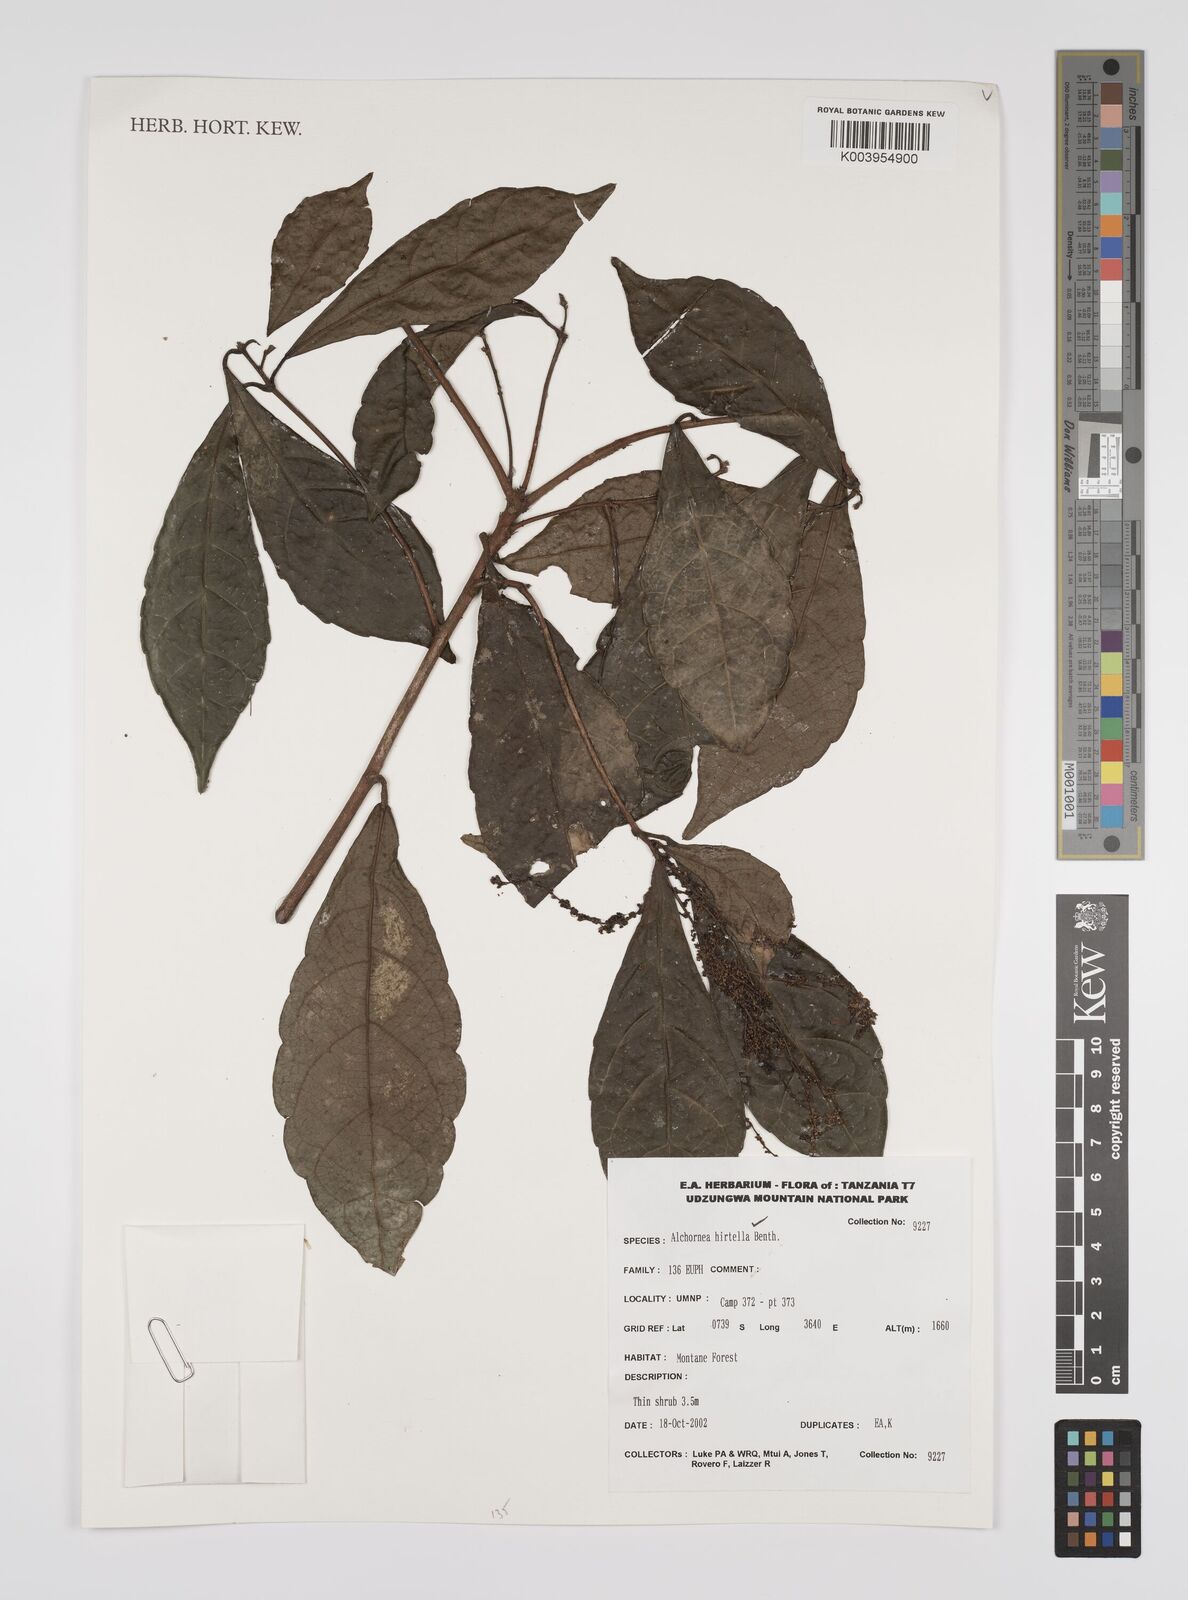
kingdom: Plantae
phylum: Tracheophyta
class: Magnoliopsida
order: Malpighiales
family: Euphorbiaceae
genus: Alchornea
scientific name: Alchornea hirtella
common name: Forest bead-string
